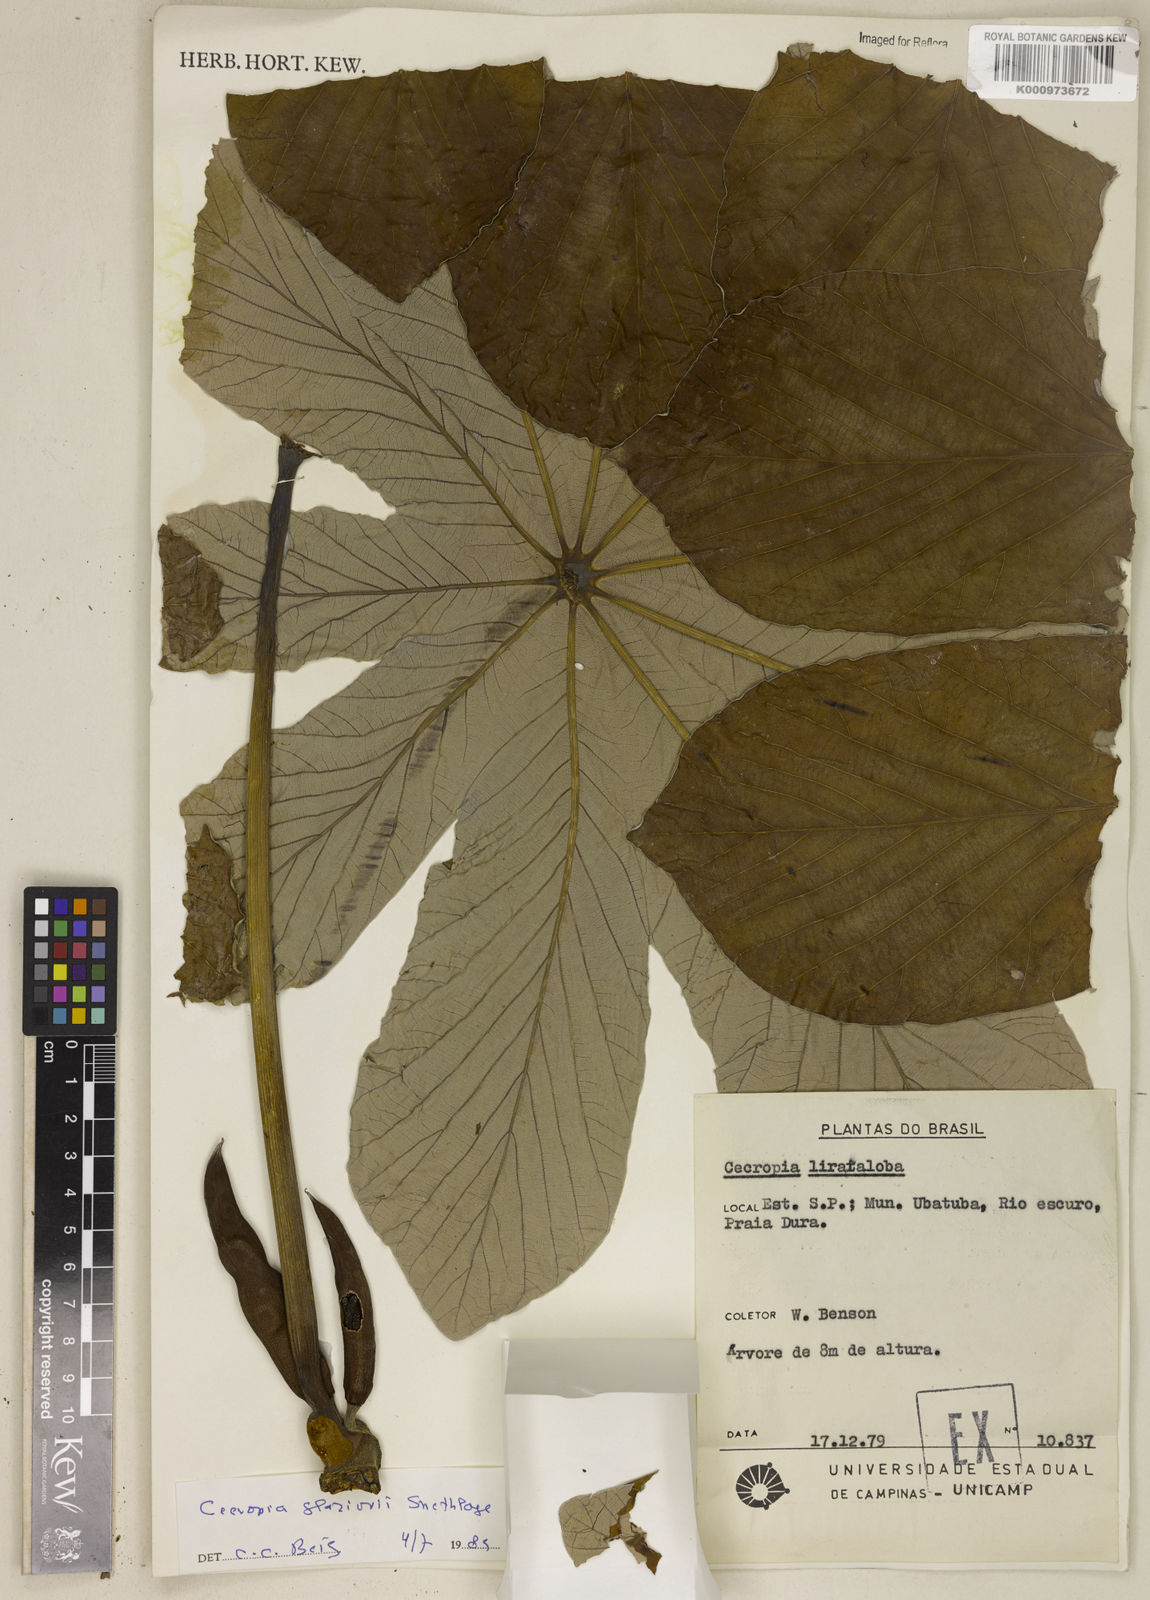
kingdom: Plantae
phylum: Tracheophyta
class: Magnoliopsida
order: Rosales
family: Urticaceae
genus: Cecropia
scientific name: Cecropia glaziovii
